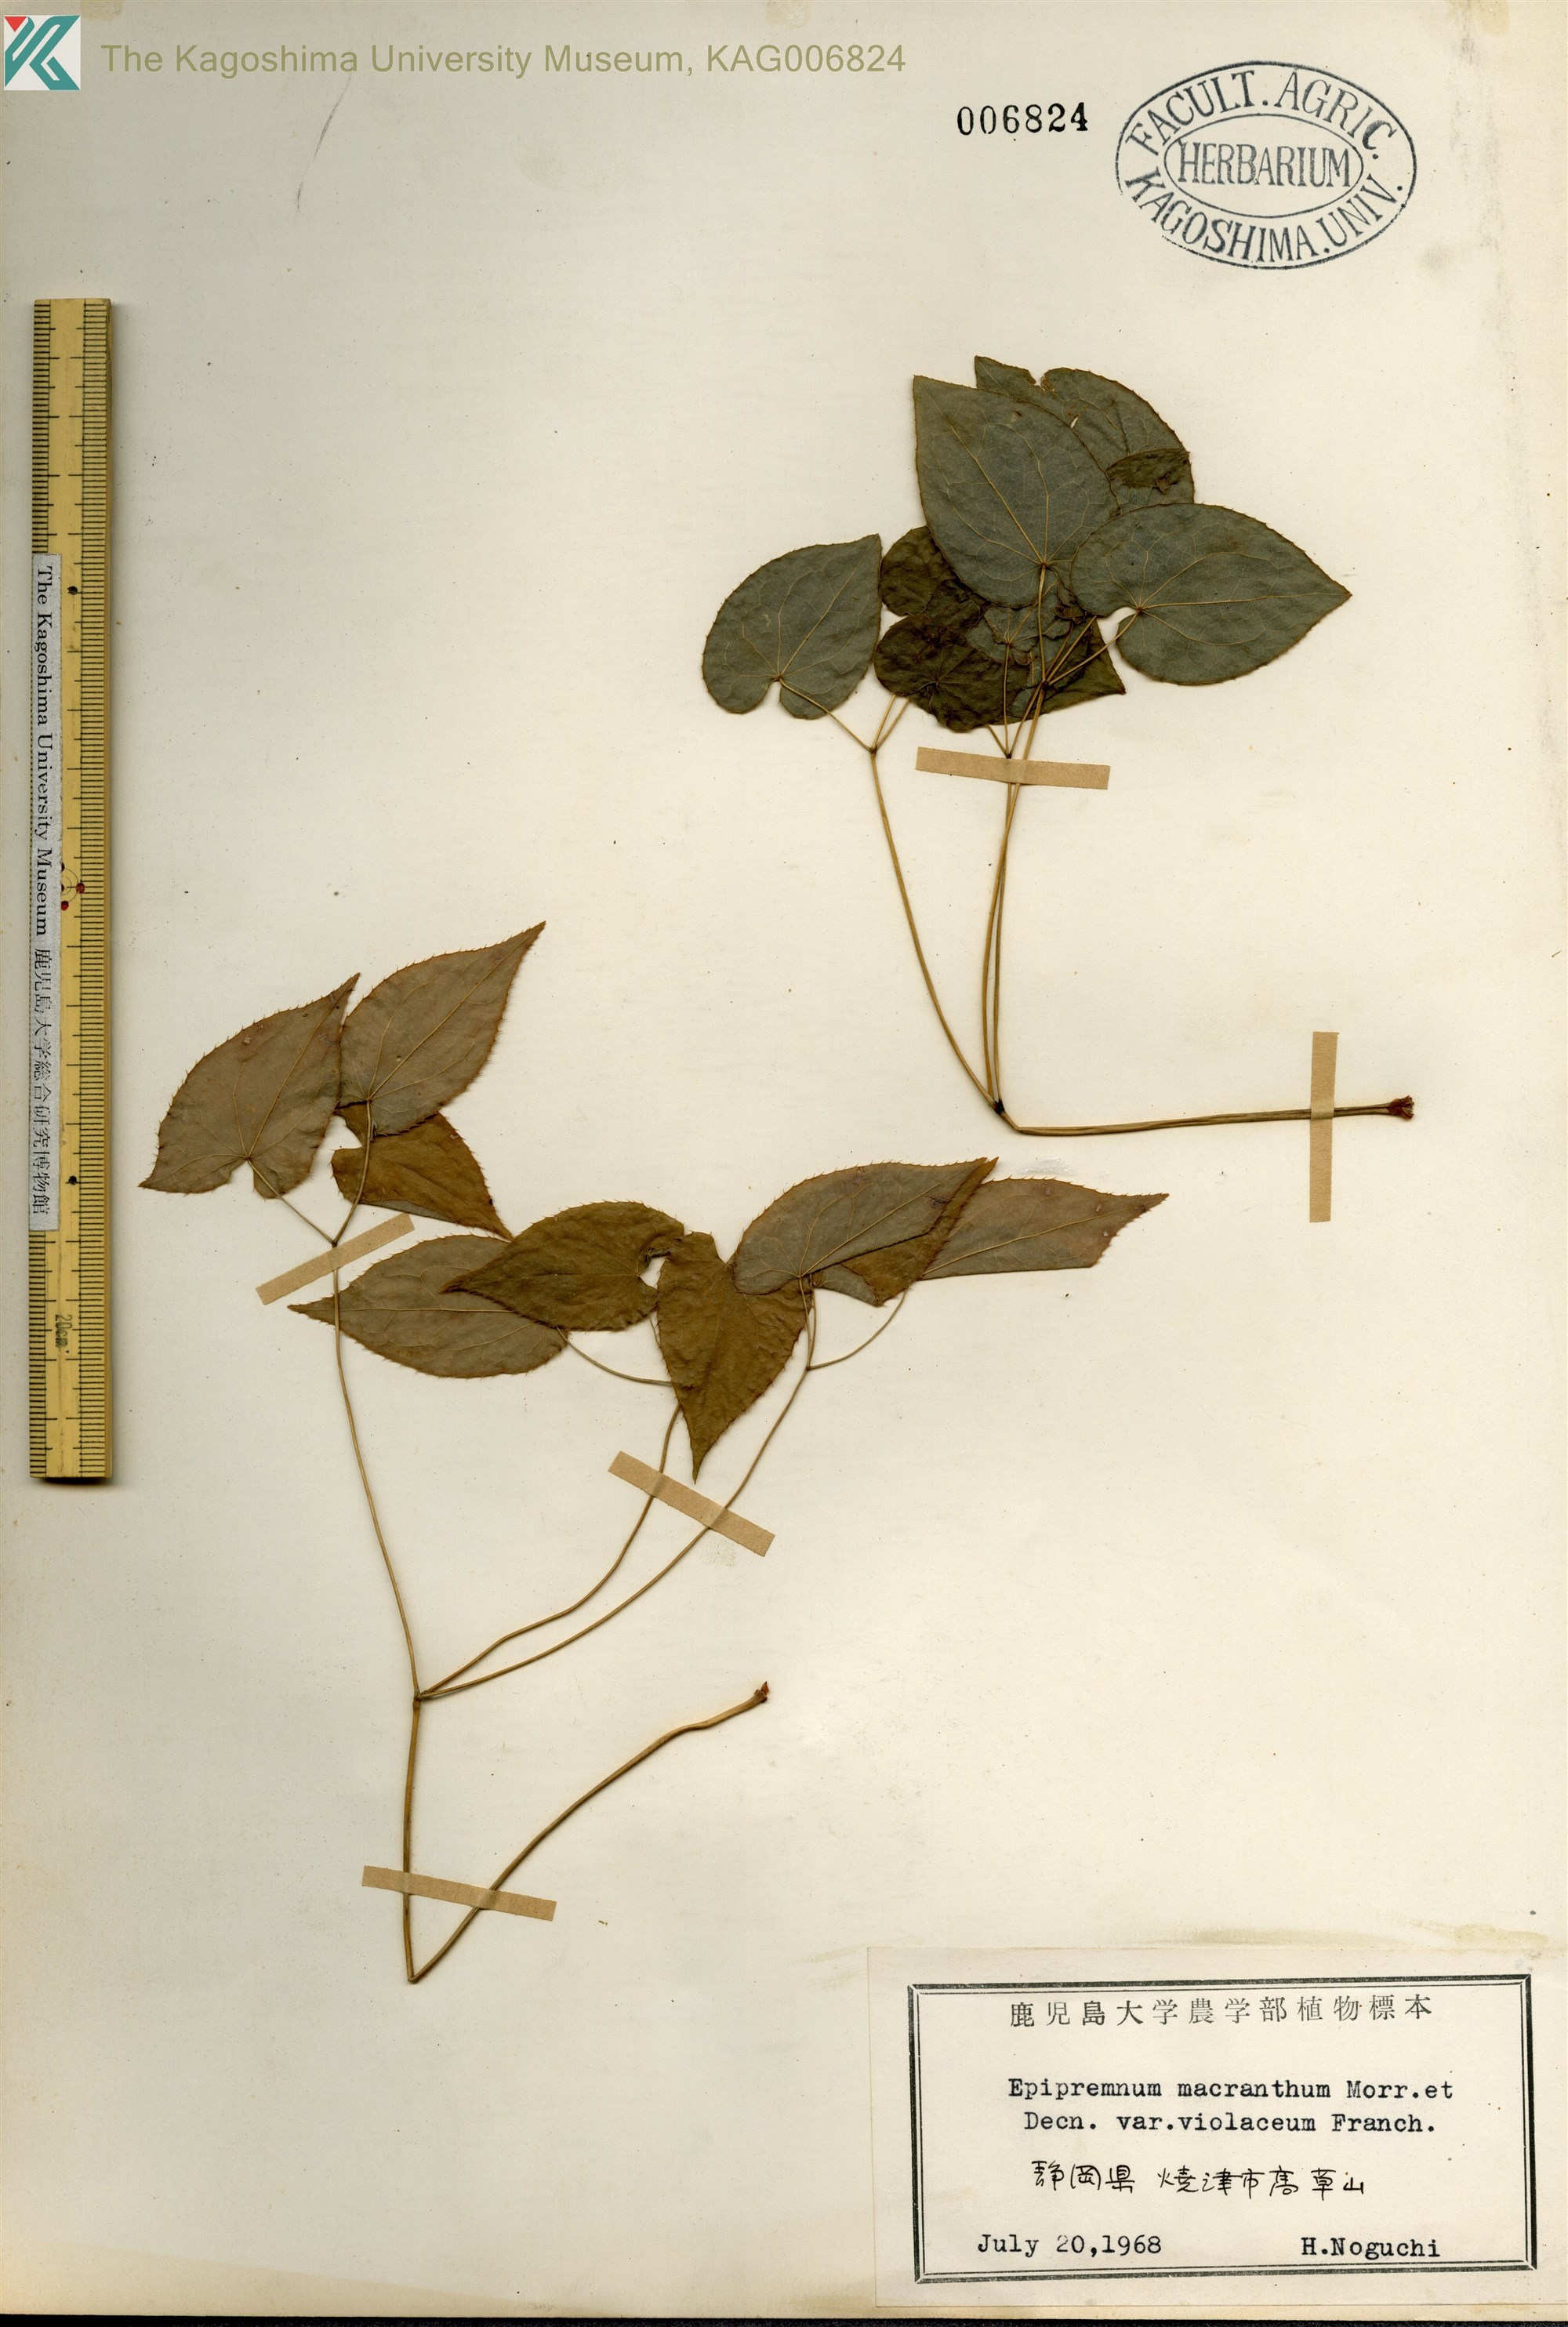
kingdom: Plantae
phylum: Tracheophyta
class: Magnoliopsida
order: Ranunculales
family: Berberidaceae
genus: Epimedium
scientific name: Epimedium grandiflorum
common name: Barrenwort
